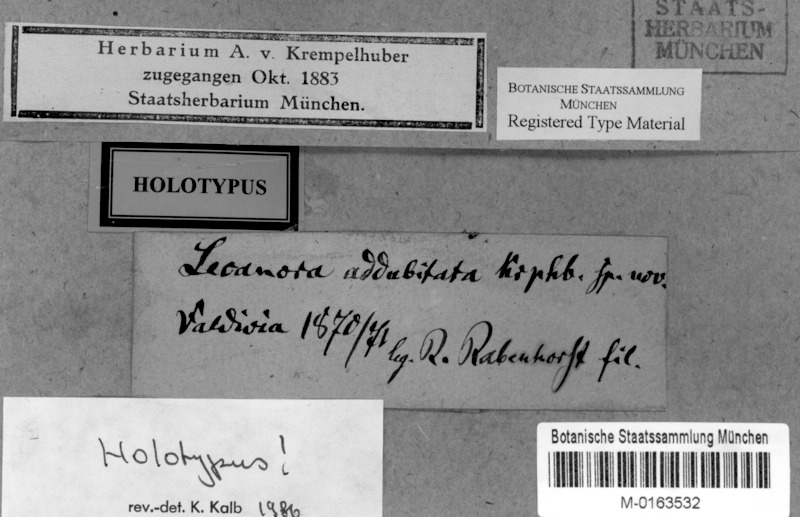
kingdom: Fungi
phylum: Ascomycota
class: Lecanoromycetes
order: Lecanorales
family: Lecanoraceae
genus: Lecanora
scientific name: Lecanora addubitata
